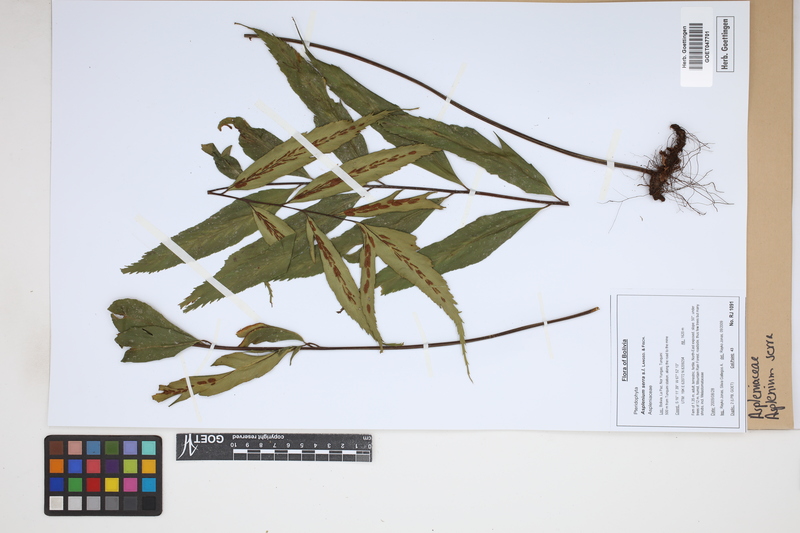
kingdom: Plantae
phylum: Tracheophyta
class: Polypodiopsida
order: Polypodiales
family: Aspleniaceae
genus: Asplenium
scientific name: Asplenium serra
